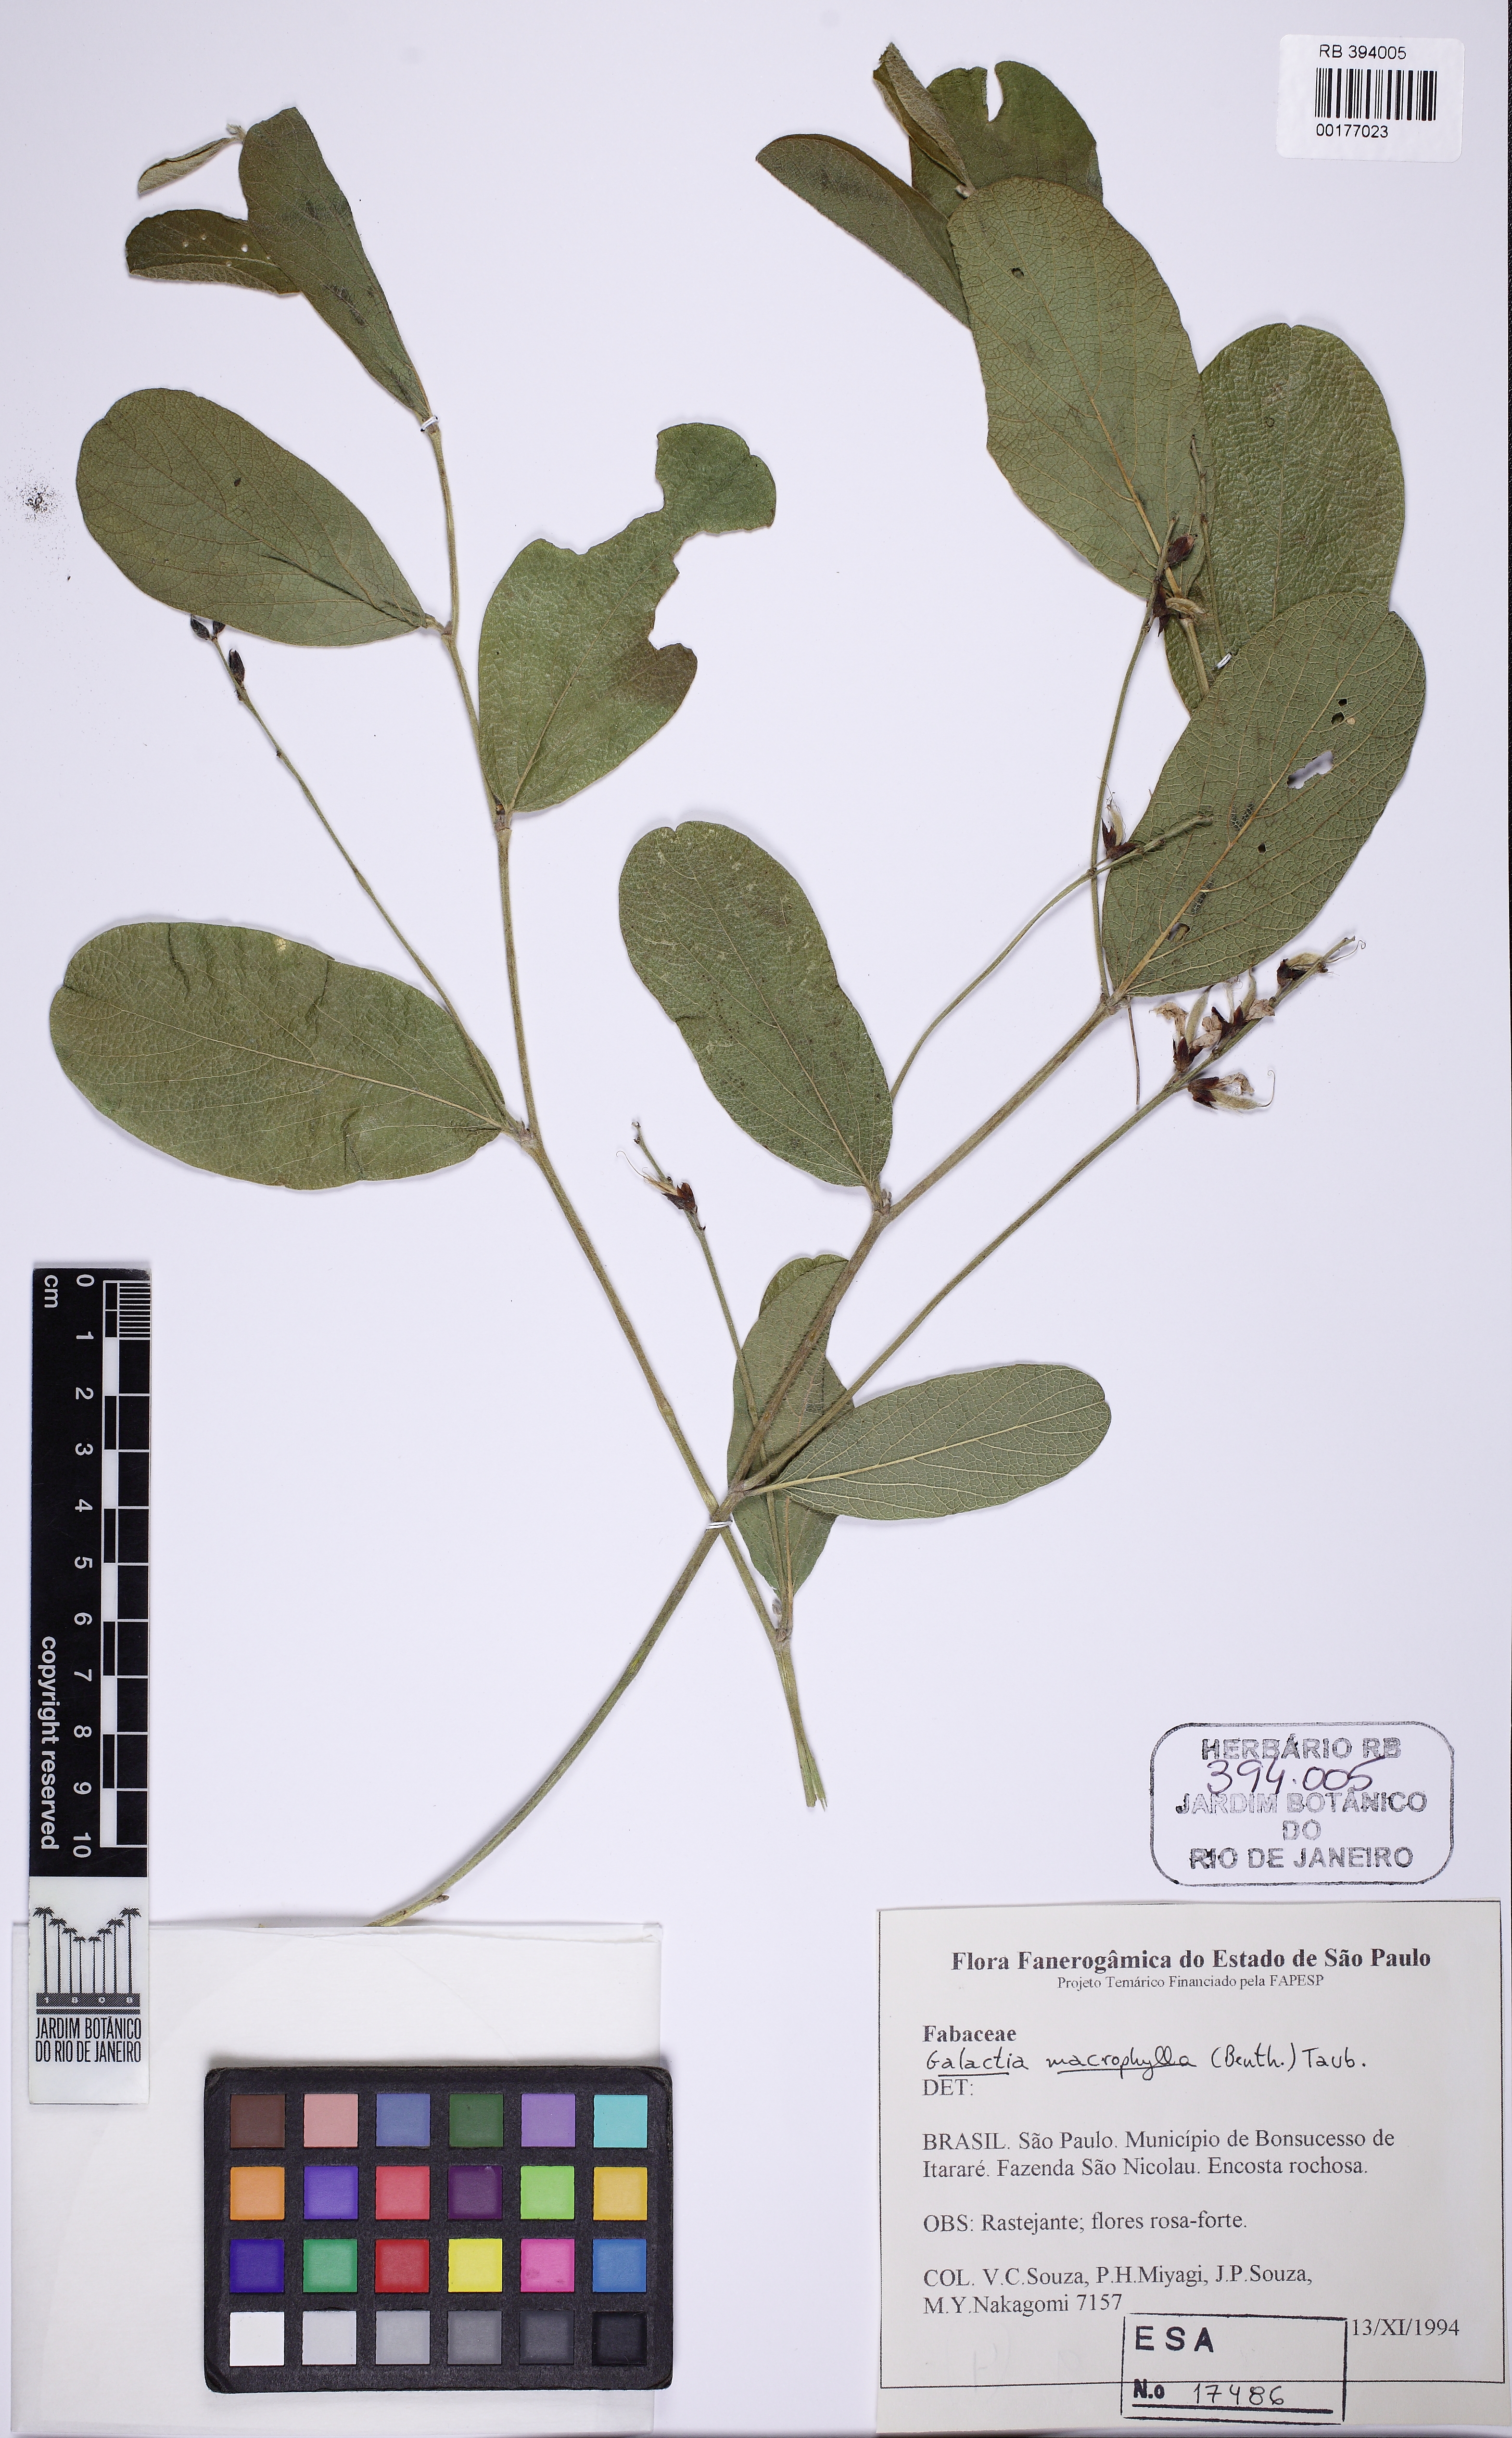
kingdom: Plantae
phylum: Tracheophyta
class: Magnoliopsida
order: Fabales
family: Fabaceae
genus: Cerradicola
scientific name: Cerradicola boavista
